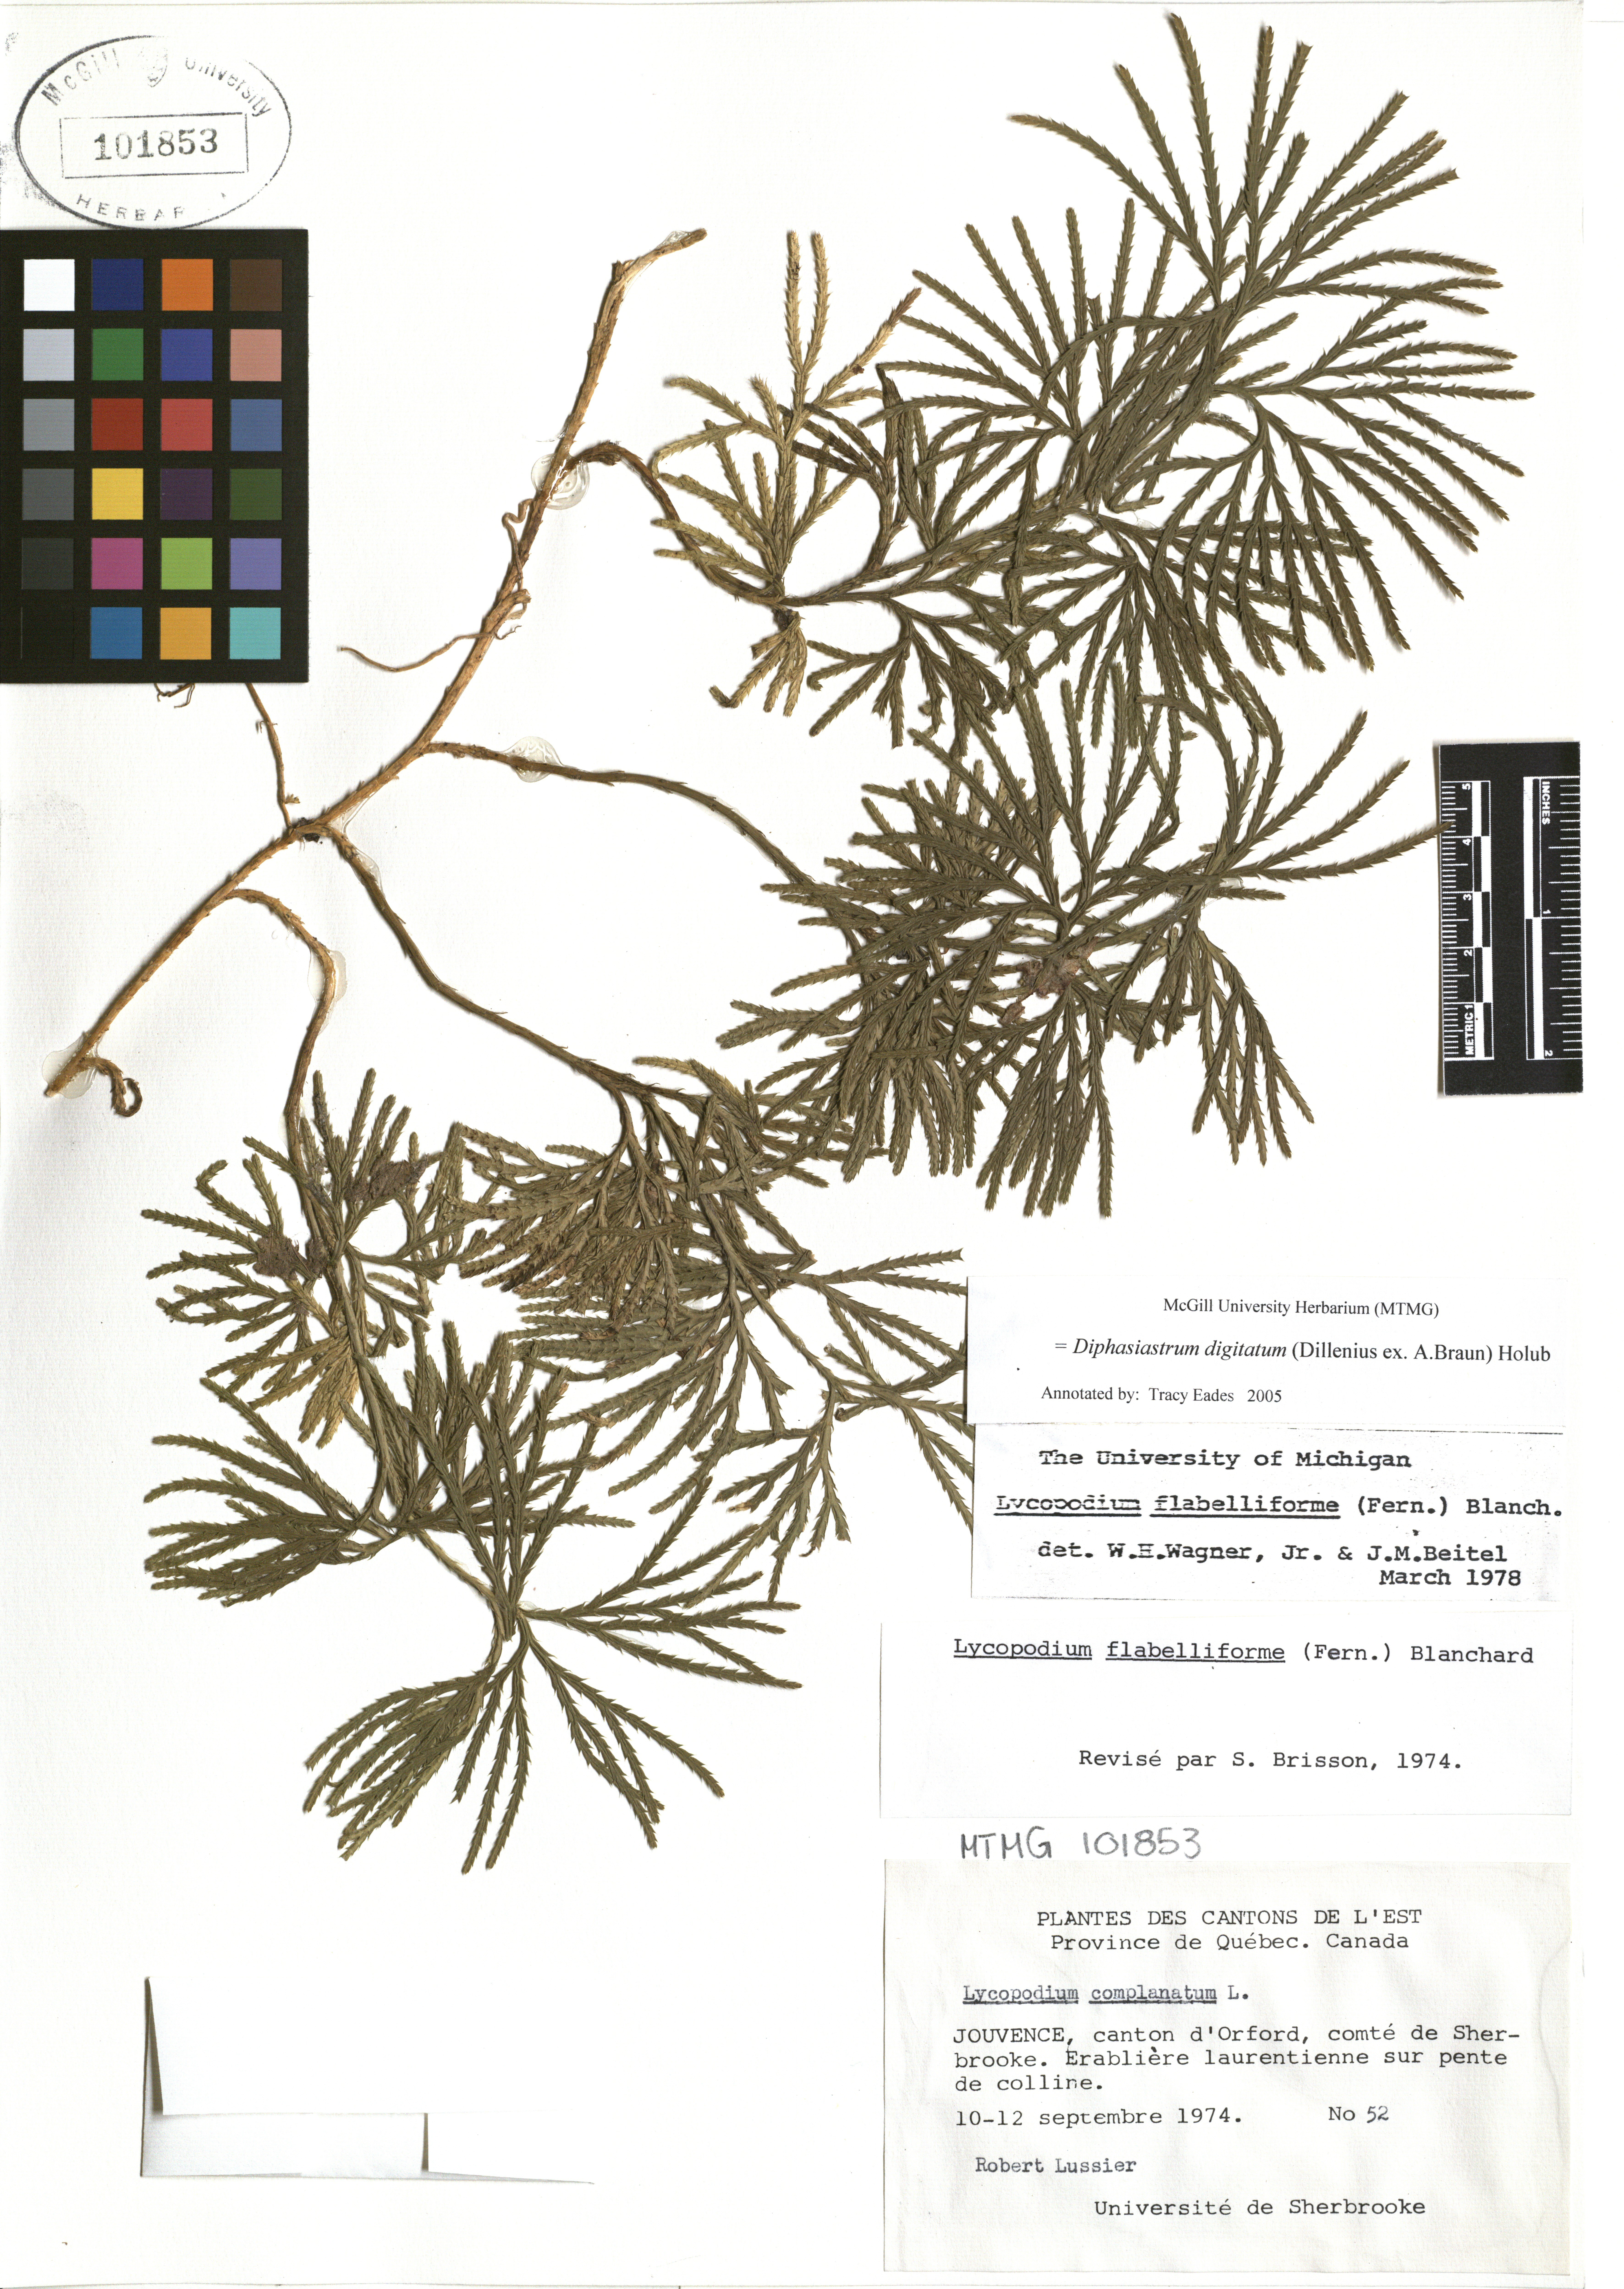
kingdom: Plantae
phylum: Tracheophyta
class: Lycopodiopsida
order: Lycopodiales
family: Lycopodiaceae
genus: Diphasiastrum
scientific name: Diphasiastrum digitatum
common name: Southern running-pine
